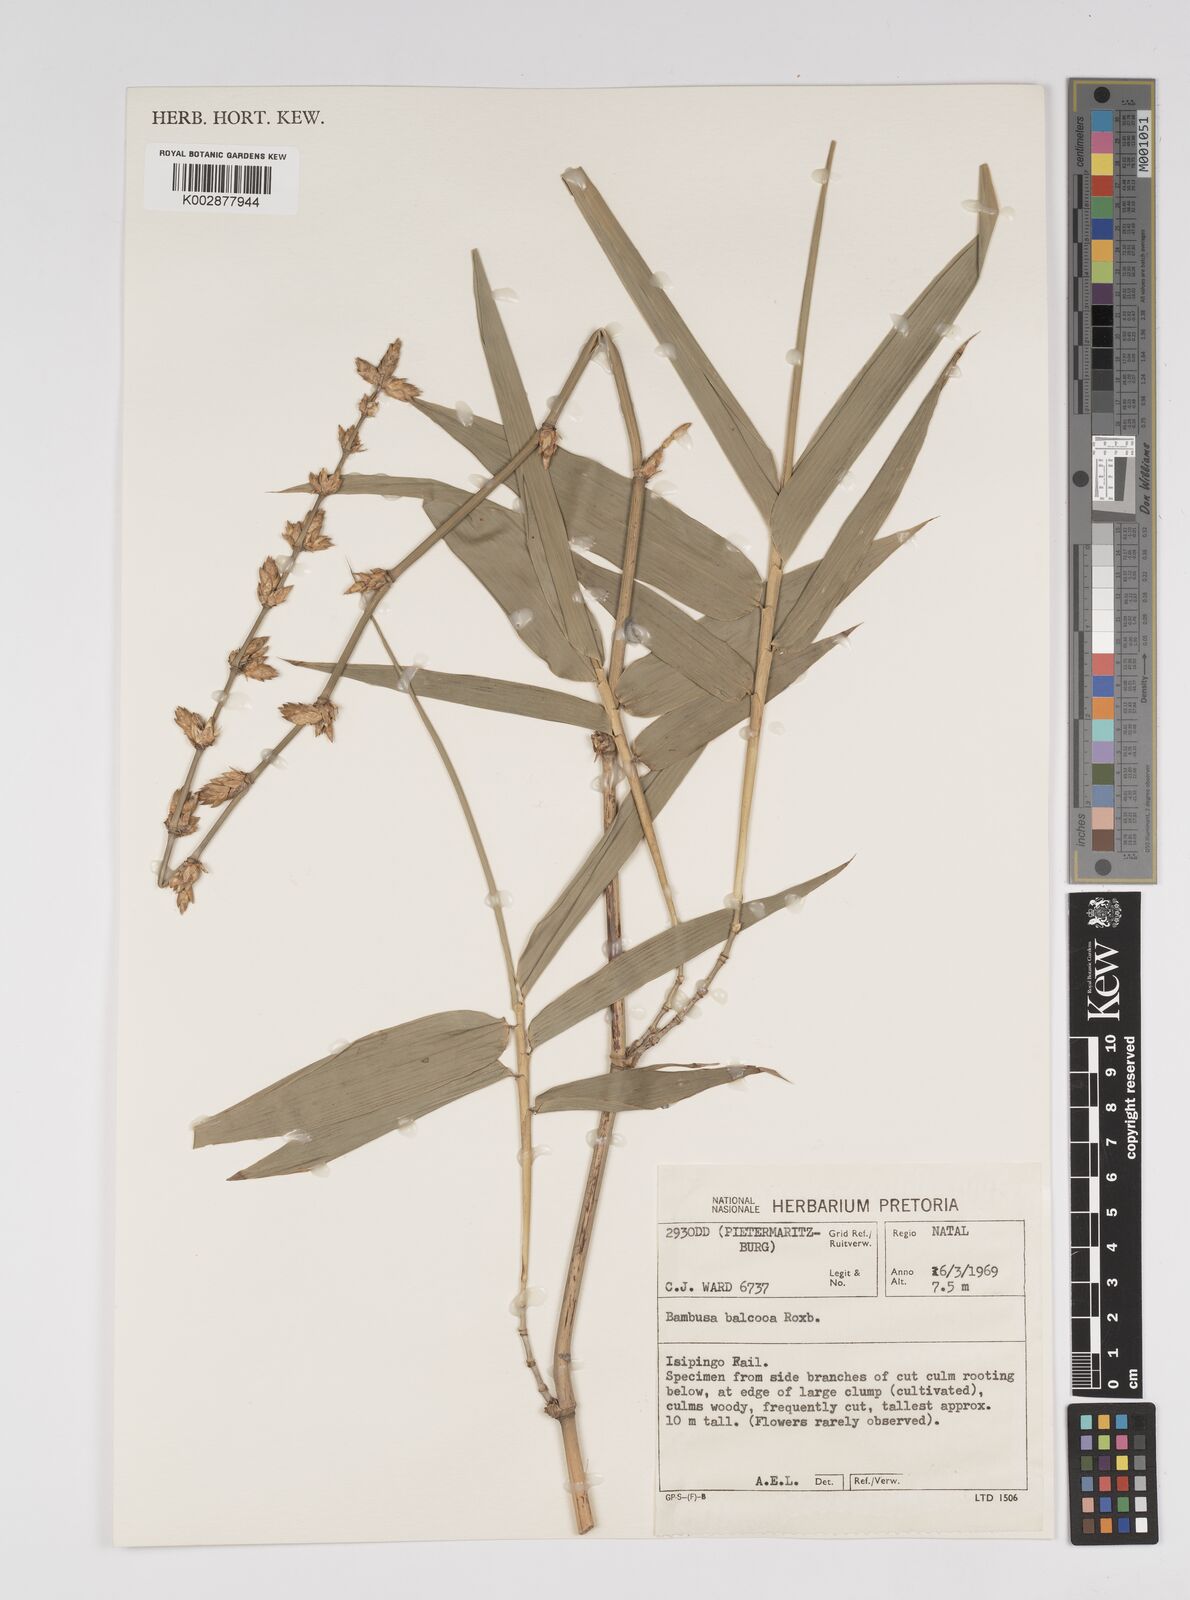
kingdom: Plantae
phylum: Tracheophyta
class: Liliopsida
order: Poales
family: Poaceae
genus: Bambusa
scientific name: Bambusa balcooa
